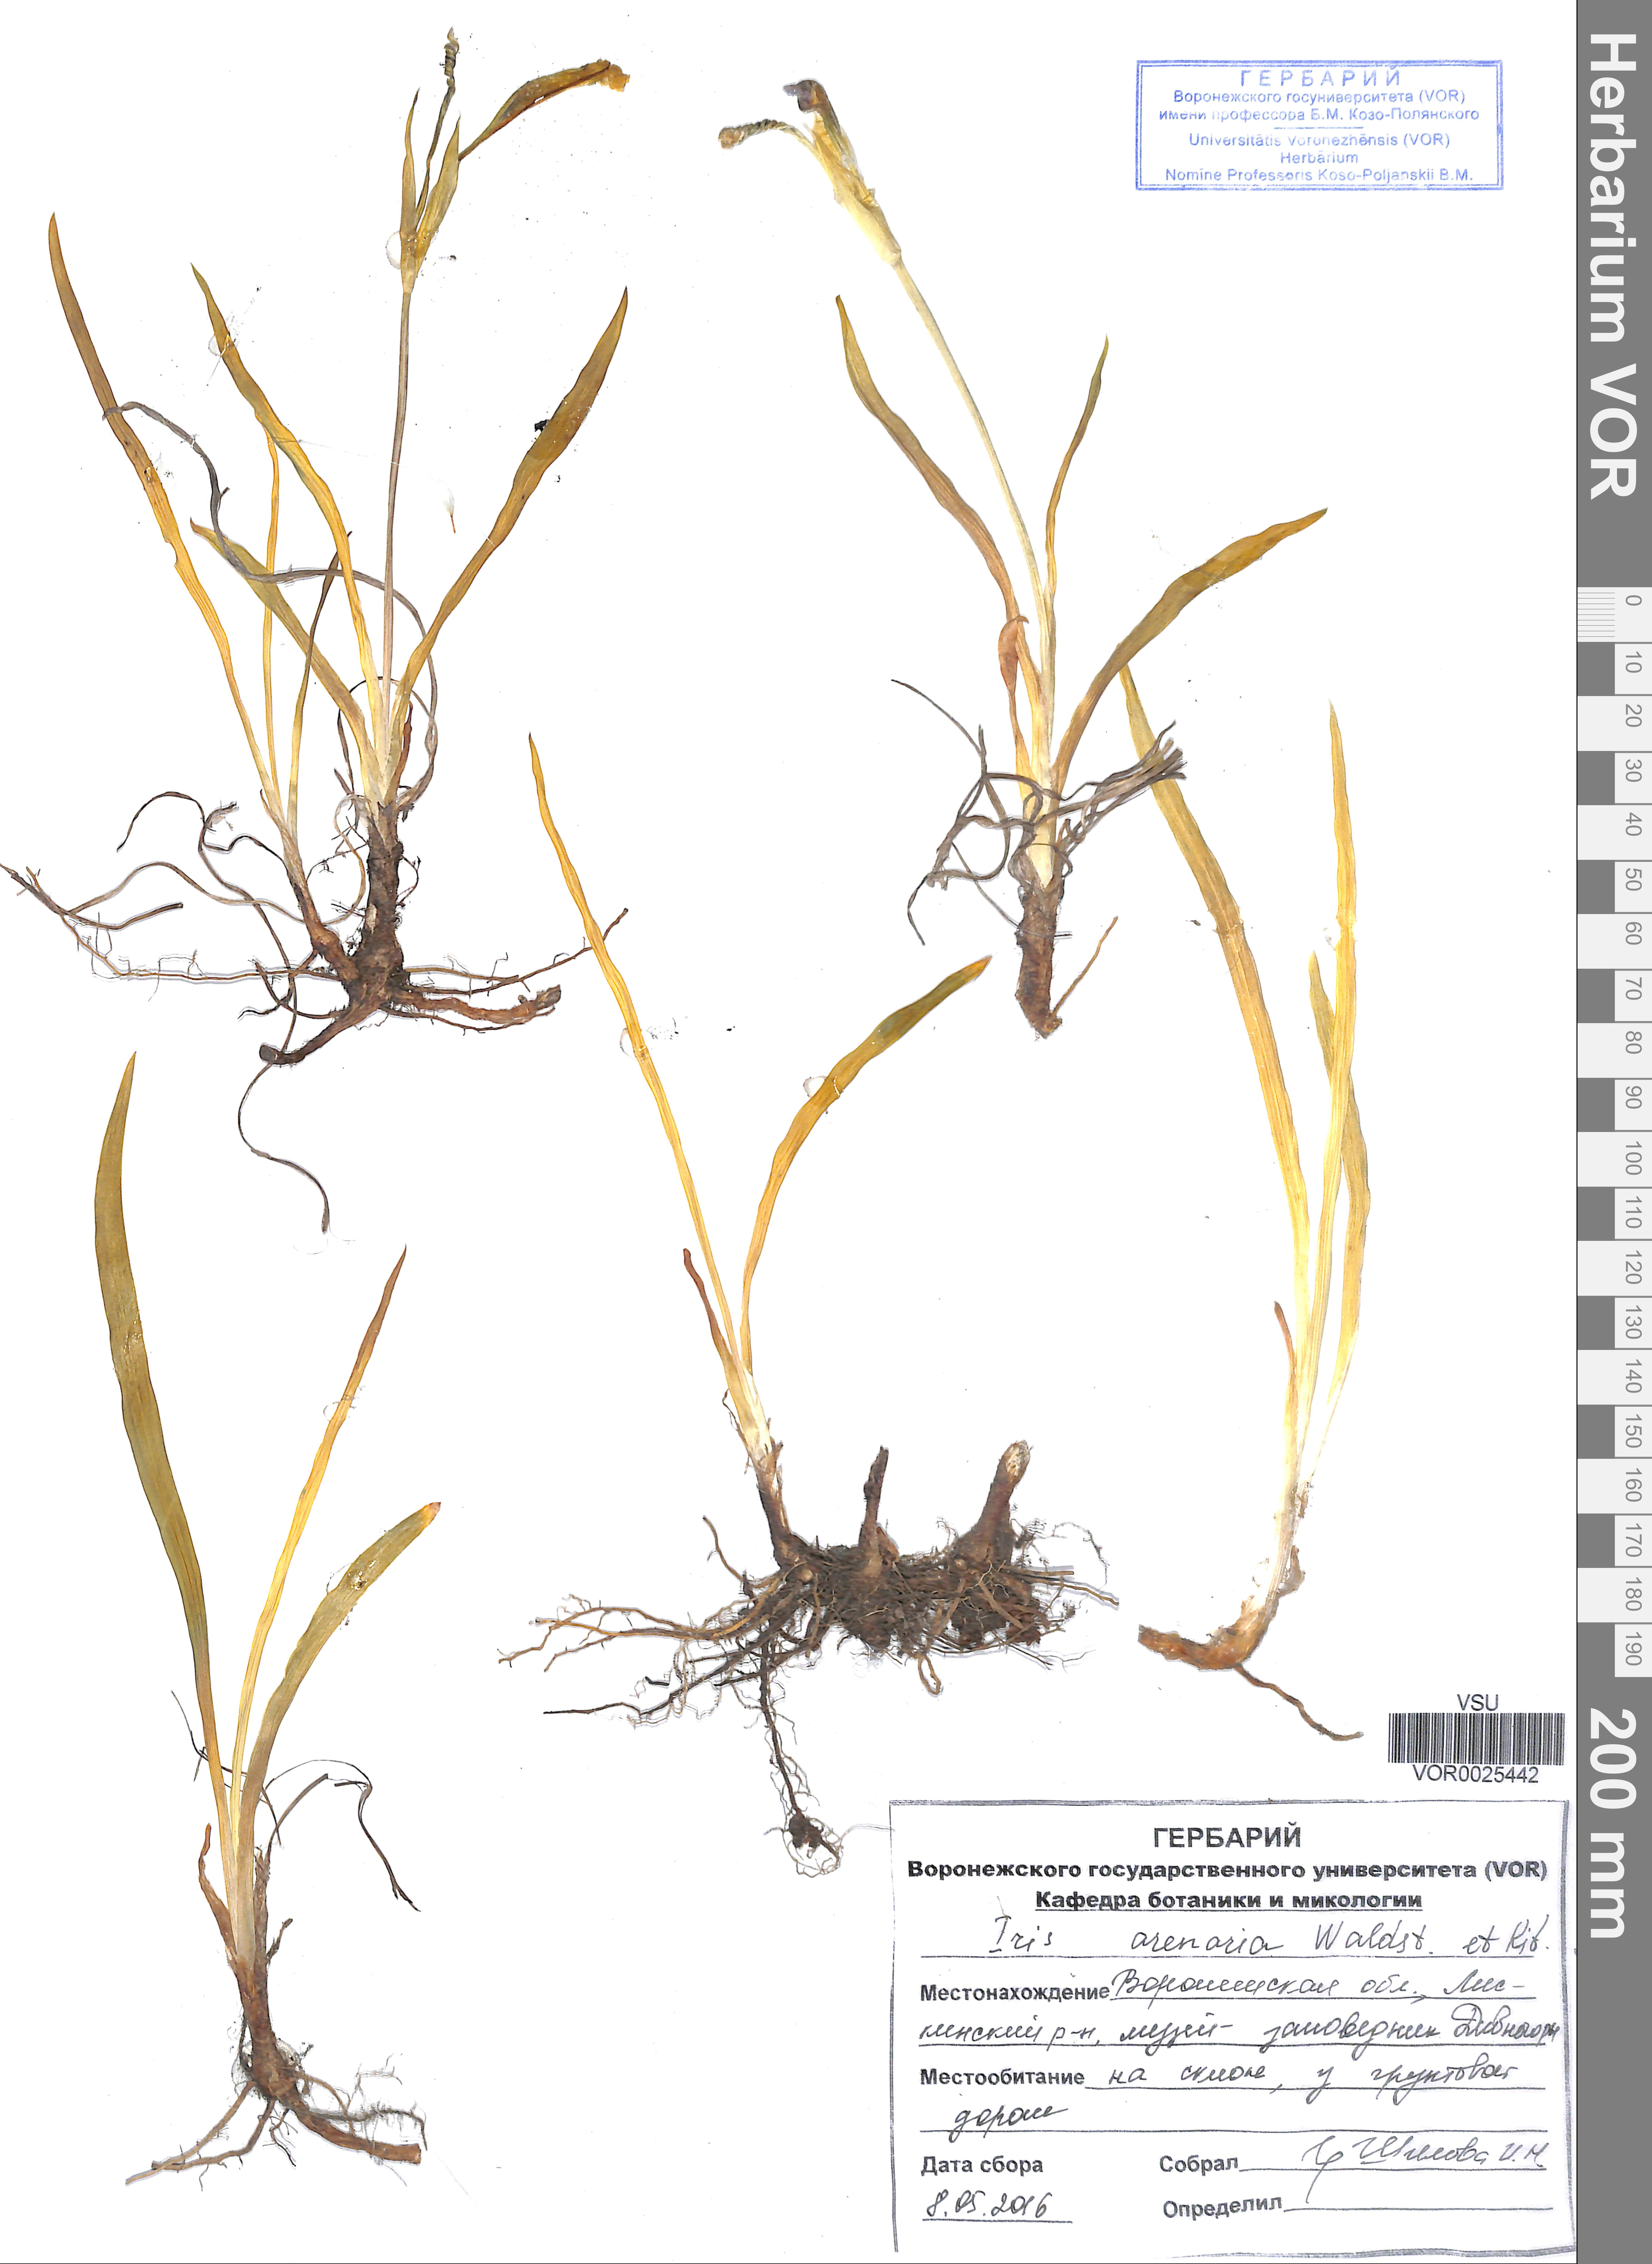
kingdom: Plantae
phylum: Tracheophyta
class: Liliopsida
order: Asparagales
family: Iridaceae
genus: Iris
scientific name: Iris arenaria
